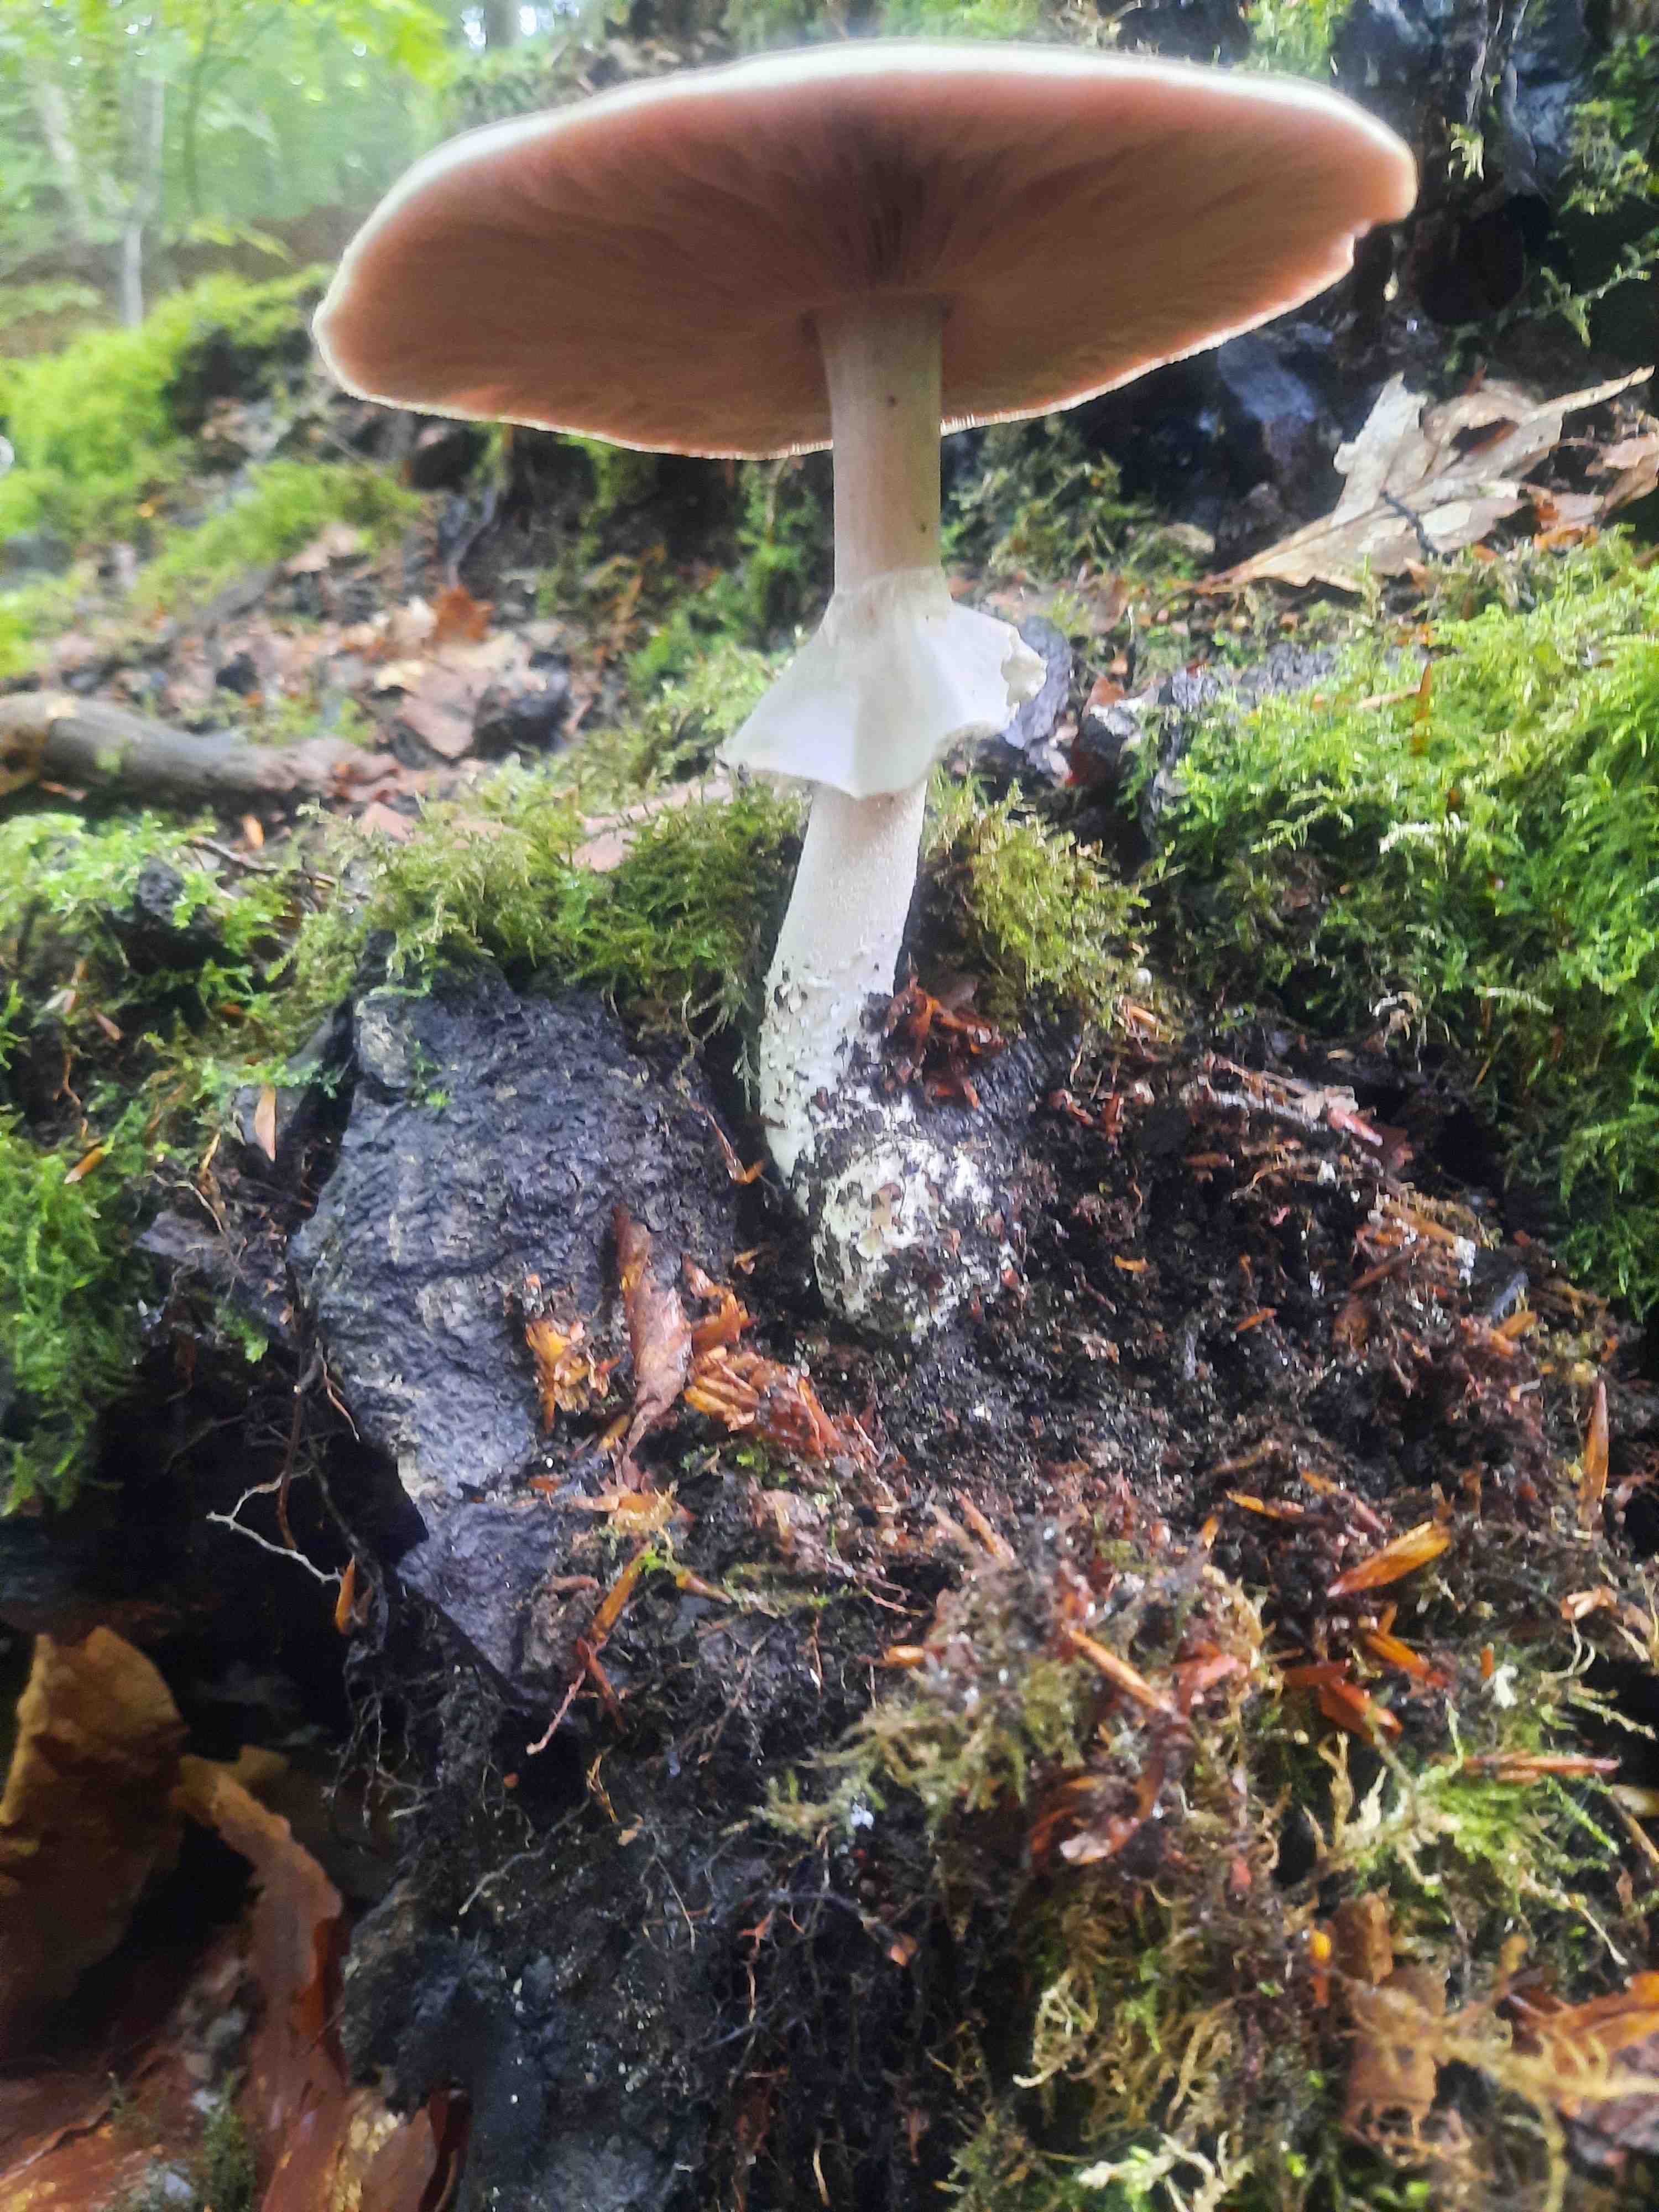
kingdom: Fungi
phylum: Basidiomycota
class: Agaricomycetes
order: Agaricales
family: Agaricaceae
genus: Agaricus
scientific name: Agaricus
